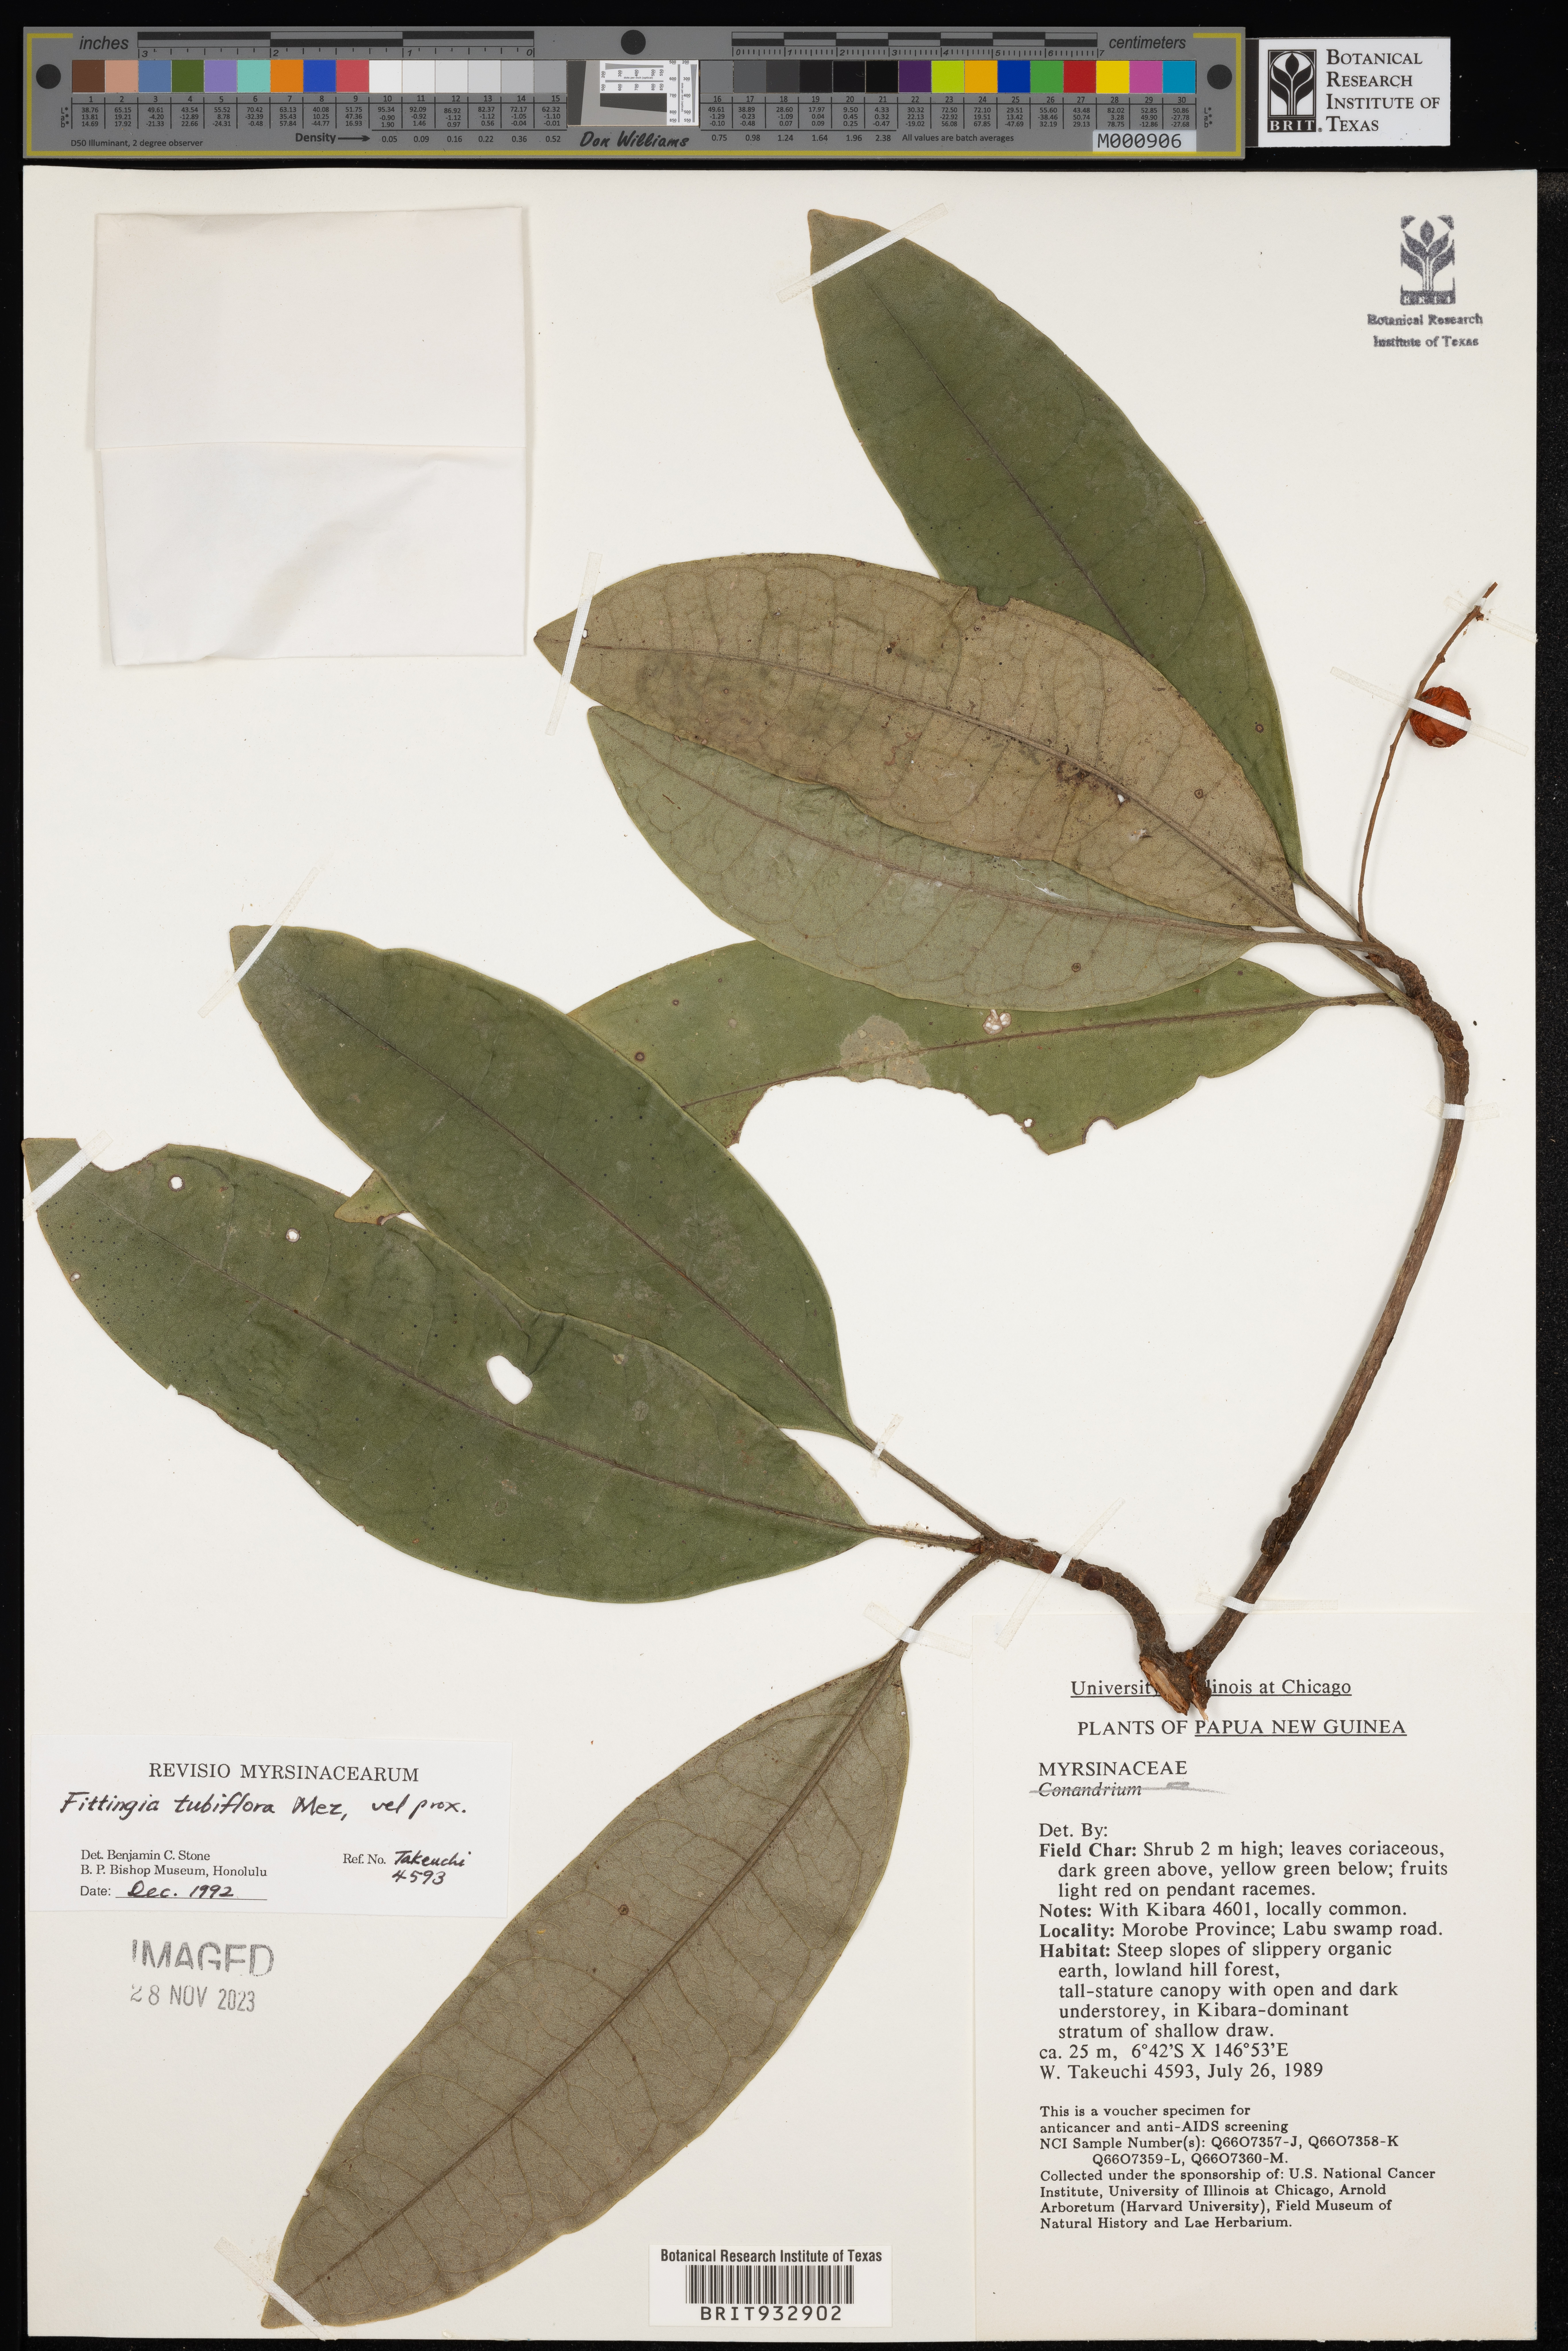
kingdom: Plantae
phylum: Tracheophyta
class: Magnoliopsida
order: Ericales
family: Primulaceae
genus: Fittingia
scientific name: Fittingia
